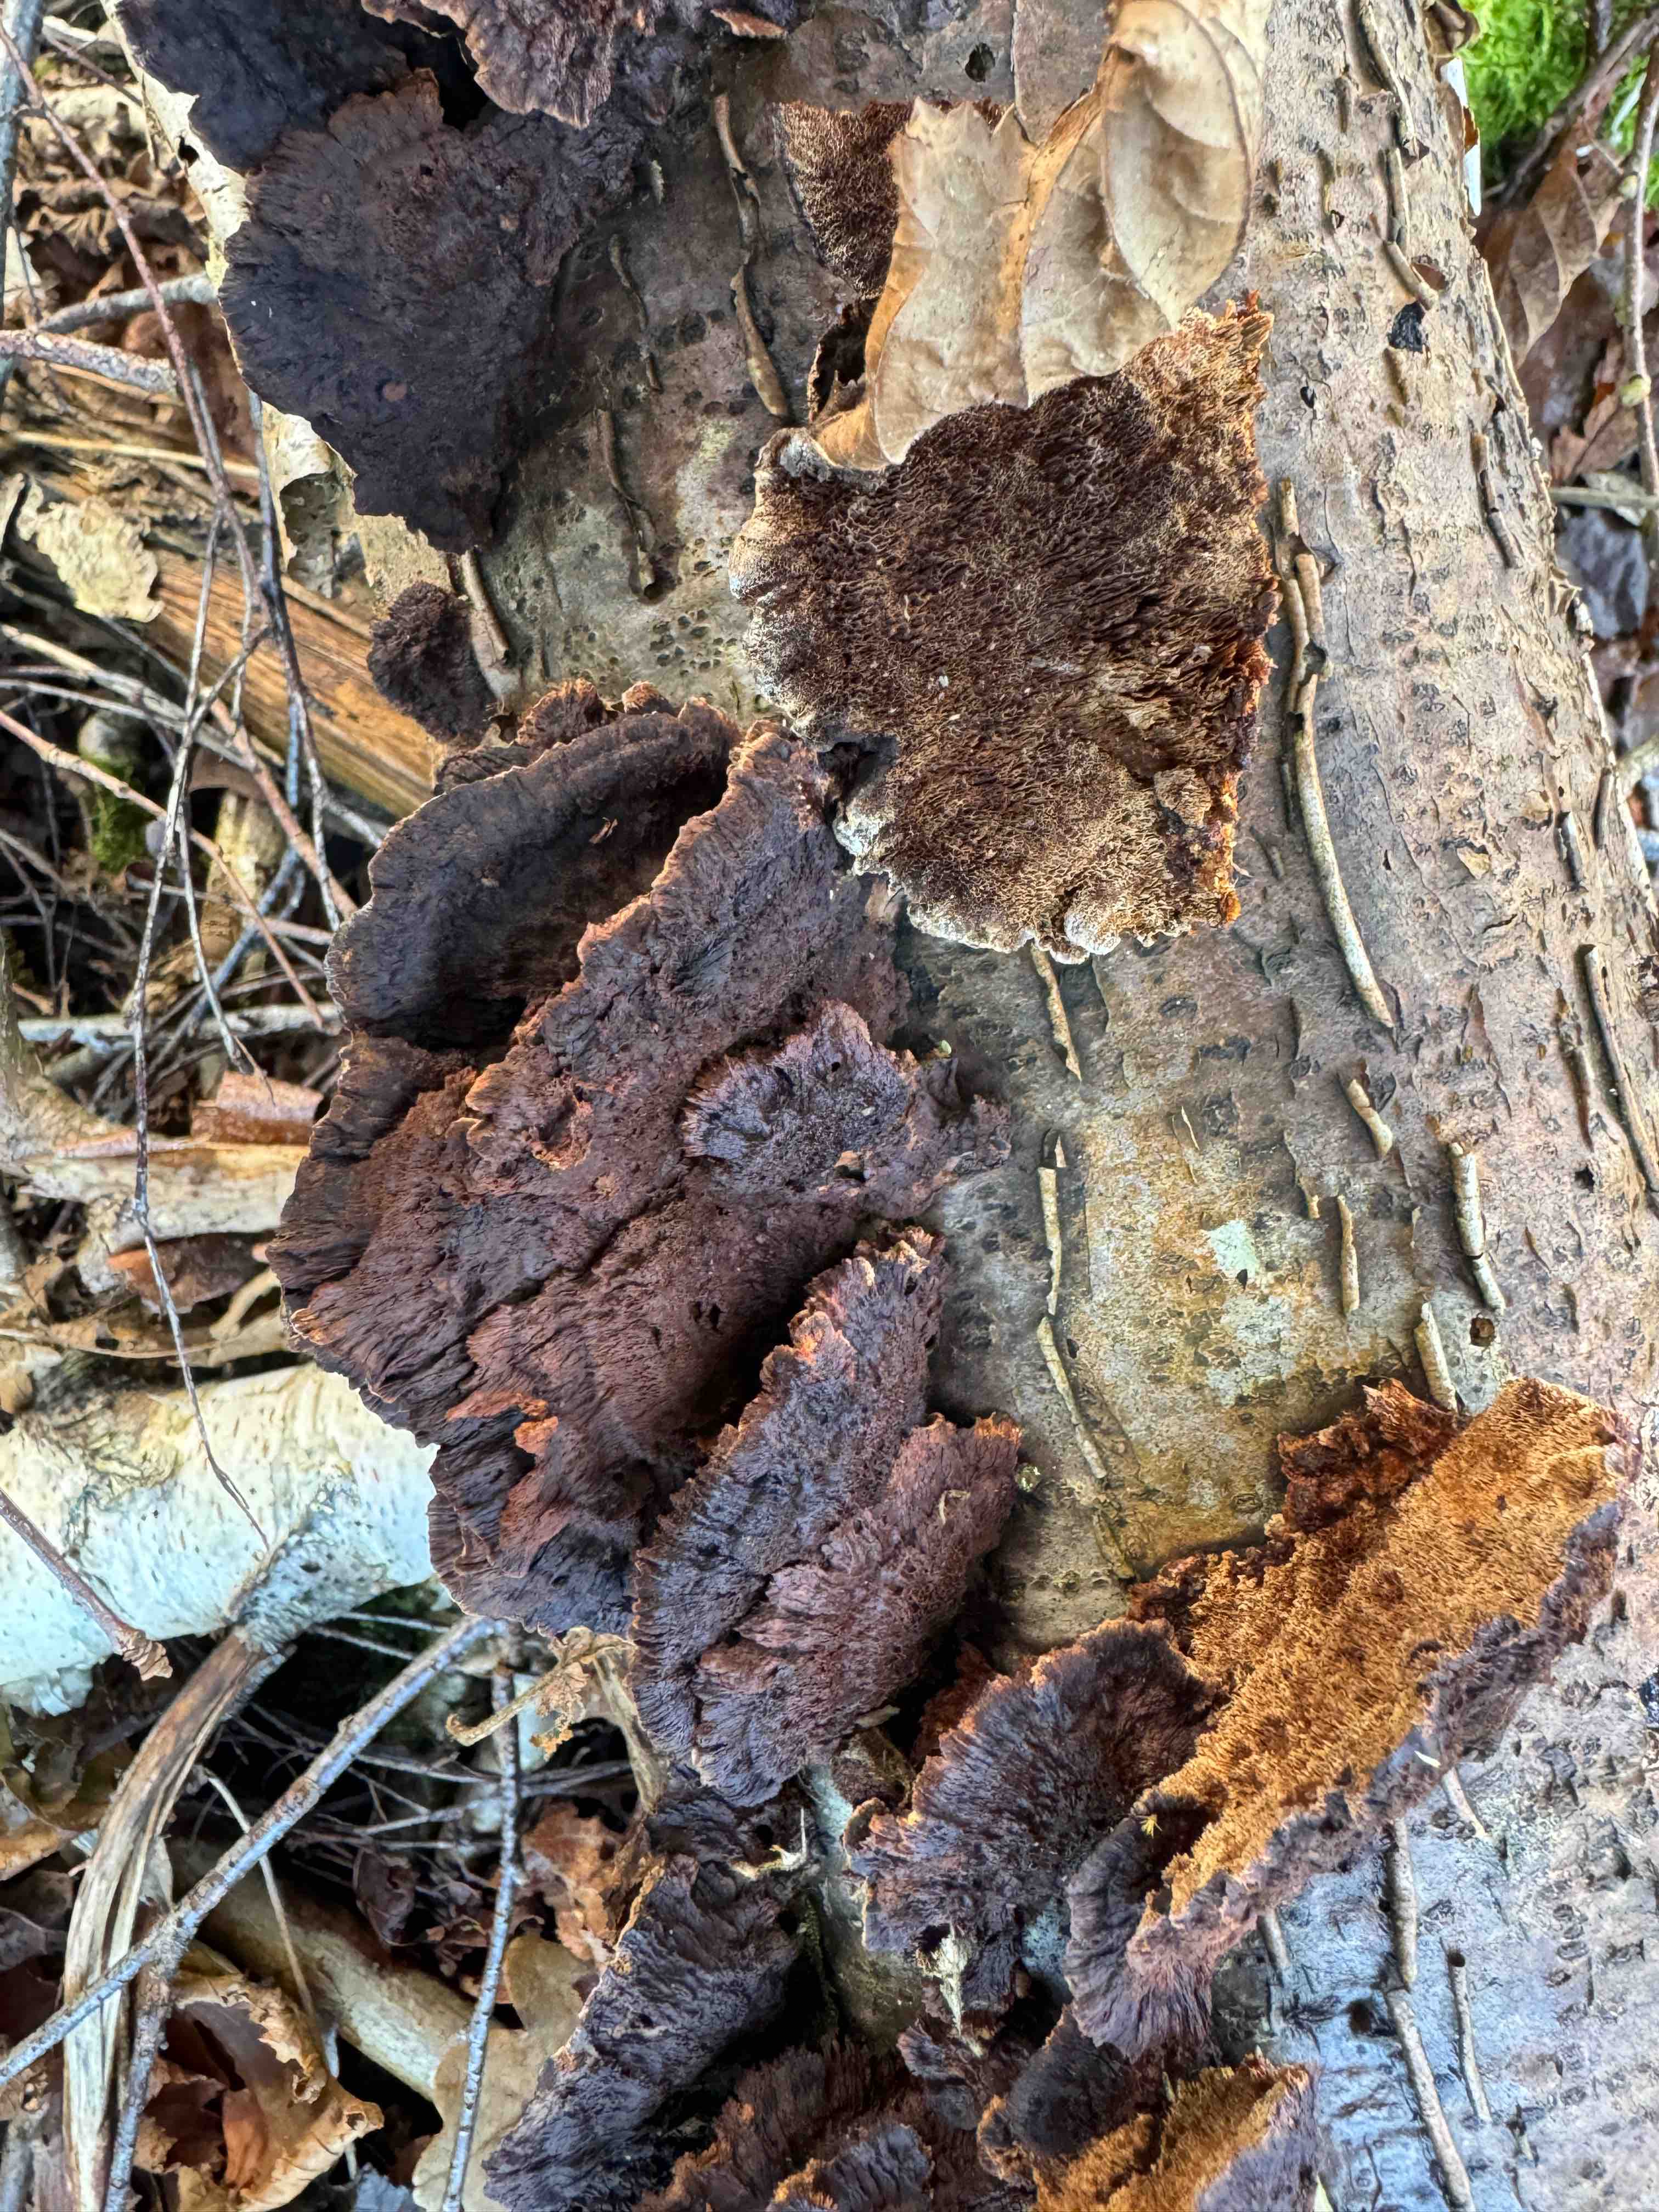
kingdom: Fungi
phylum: Basidiomycota
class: Agaricomycetes
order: Hymenochaetales
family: Hymenochaetaceae
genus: Xanthoporia
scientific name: Xanthoporia radiata
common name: elle-spejlporesvamp
